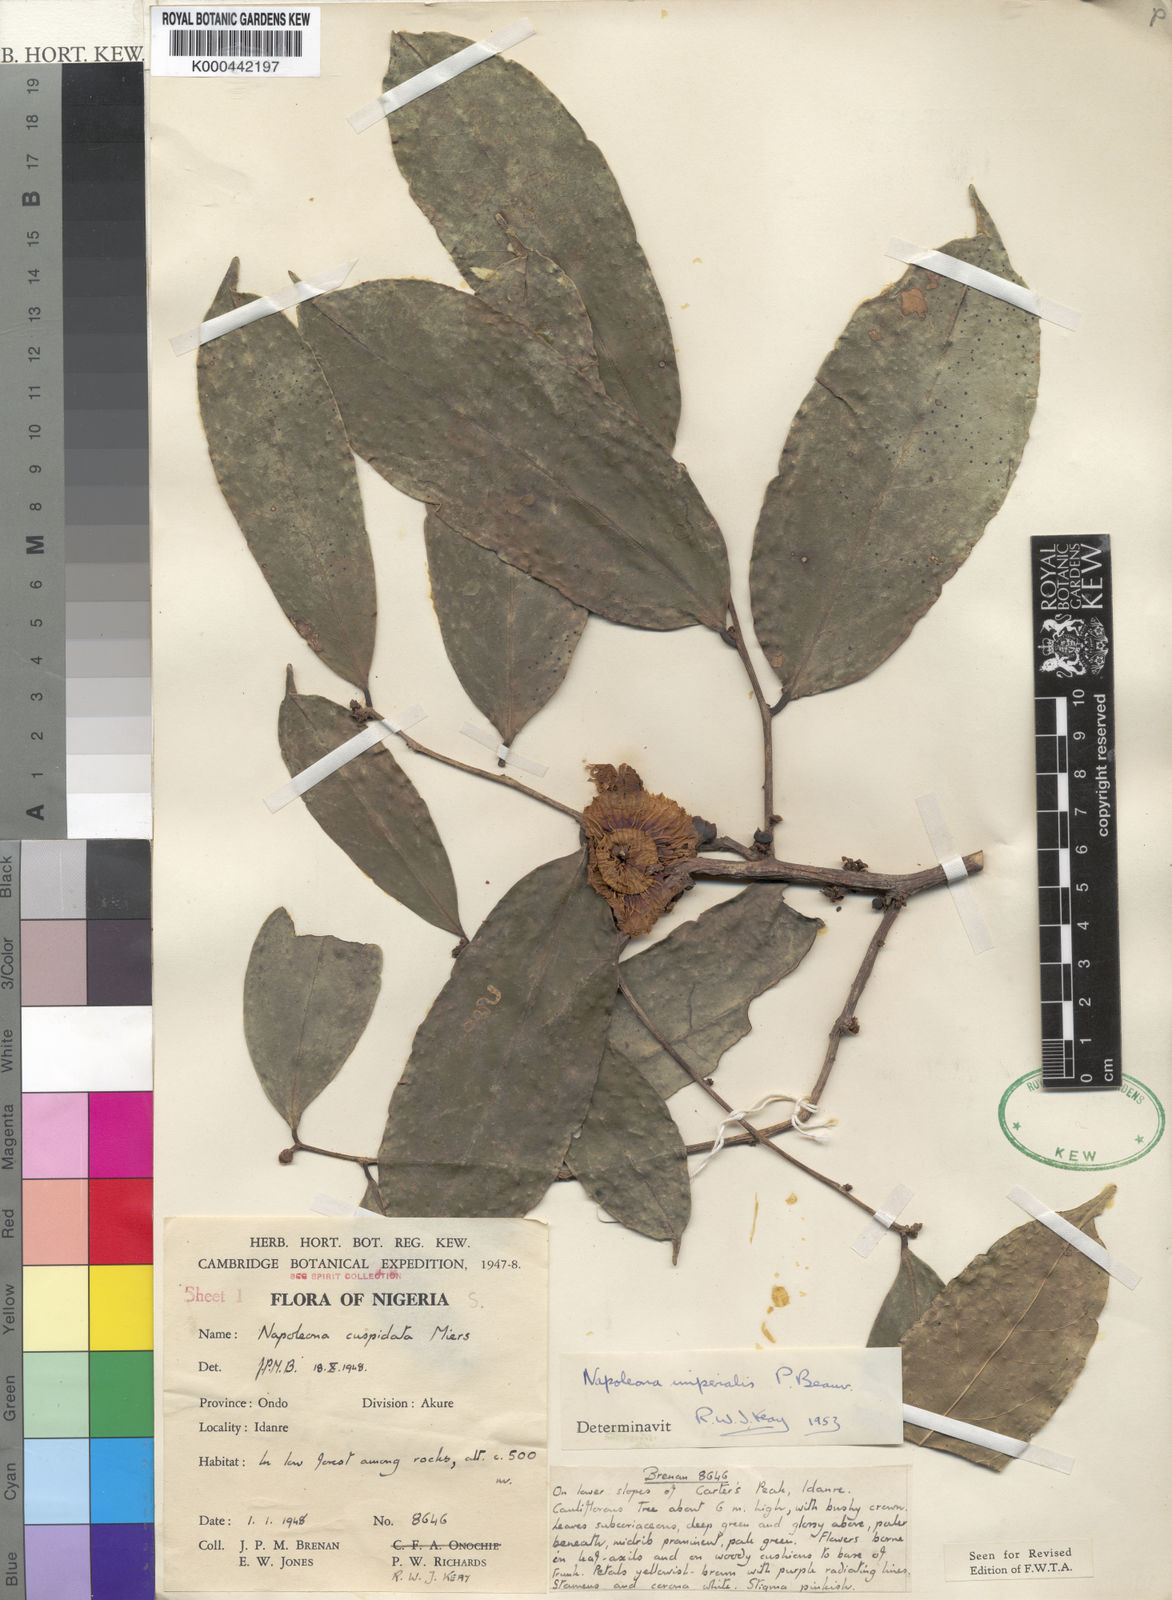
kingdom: Plantae
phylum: Tracheophyta
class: Magnoliopsida
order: Ericales
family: Lecythidaceae
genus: Napoleonaea
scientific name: Napoleonaea imperialis
